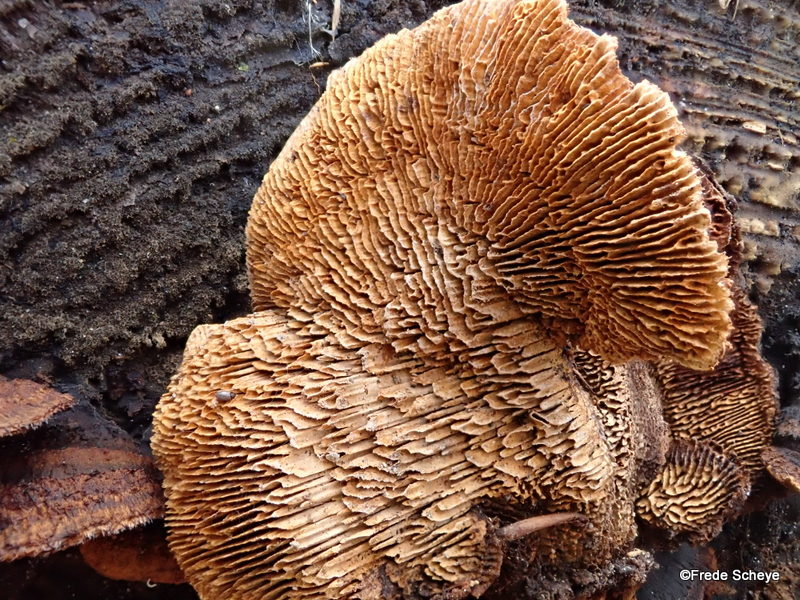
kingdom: Fungi
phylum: Basidiomycota
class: Agaricomycetes
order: Gloeophyllales
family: Gloeophyllaceae
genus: Gloeophyllum
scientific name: Gloeophyllum sepiarium
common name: fyrre-korkhat
